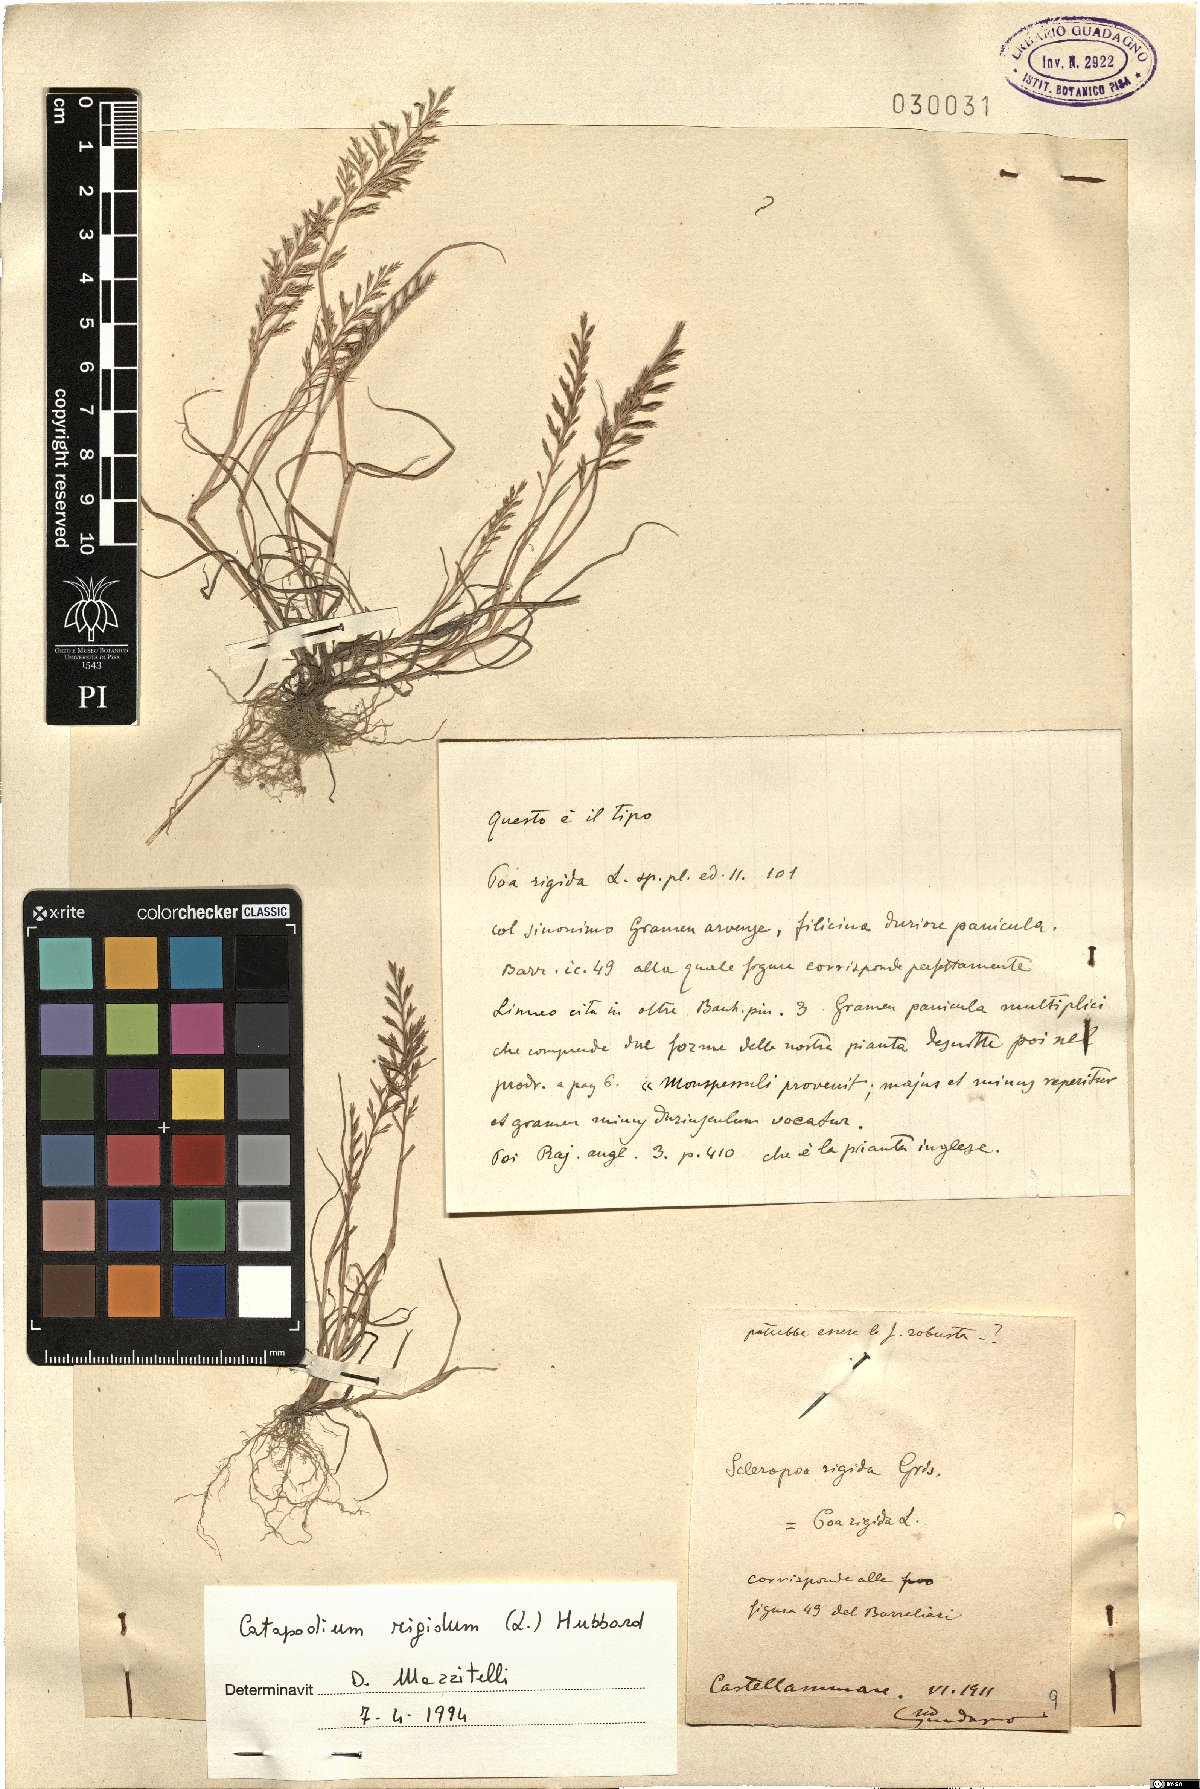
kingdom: Plantae
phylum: Tracheophyta
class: Liliopsida
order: Poales
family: Poaceae
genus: Catapodium
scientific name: Catapodium rigidum
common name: Fern-grass
